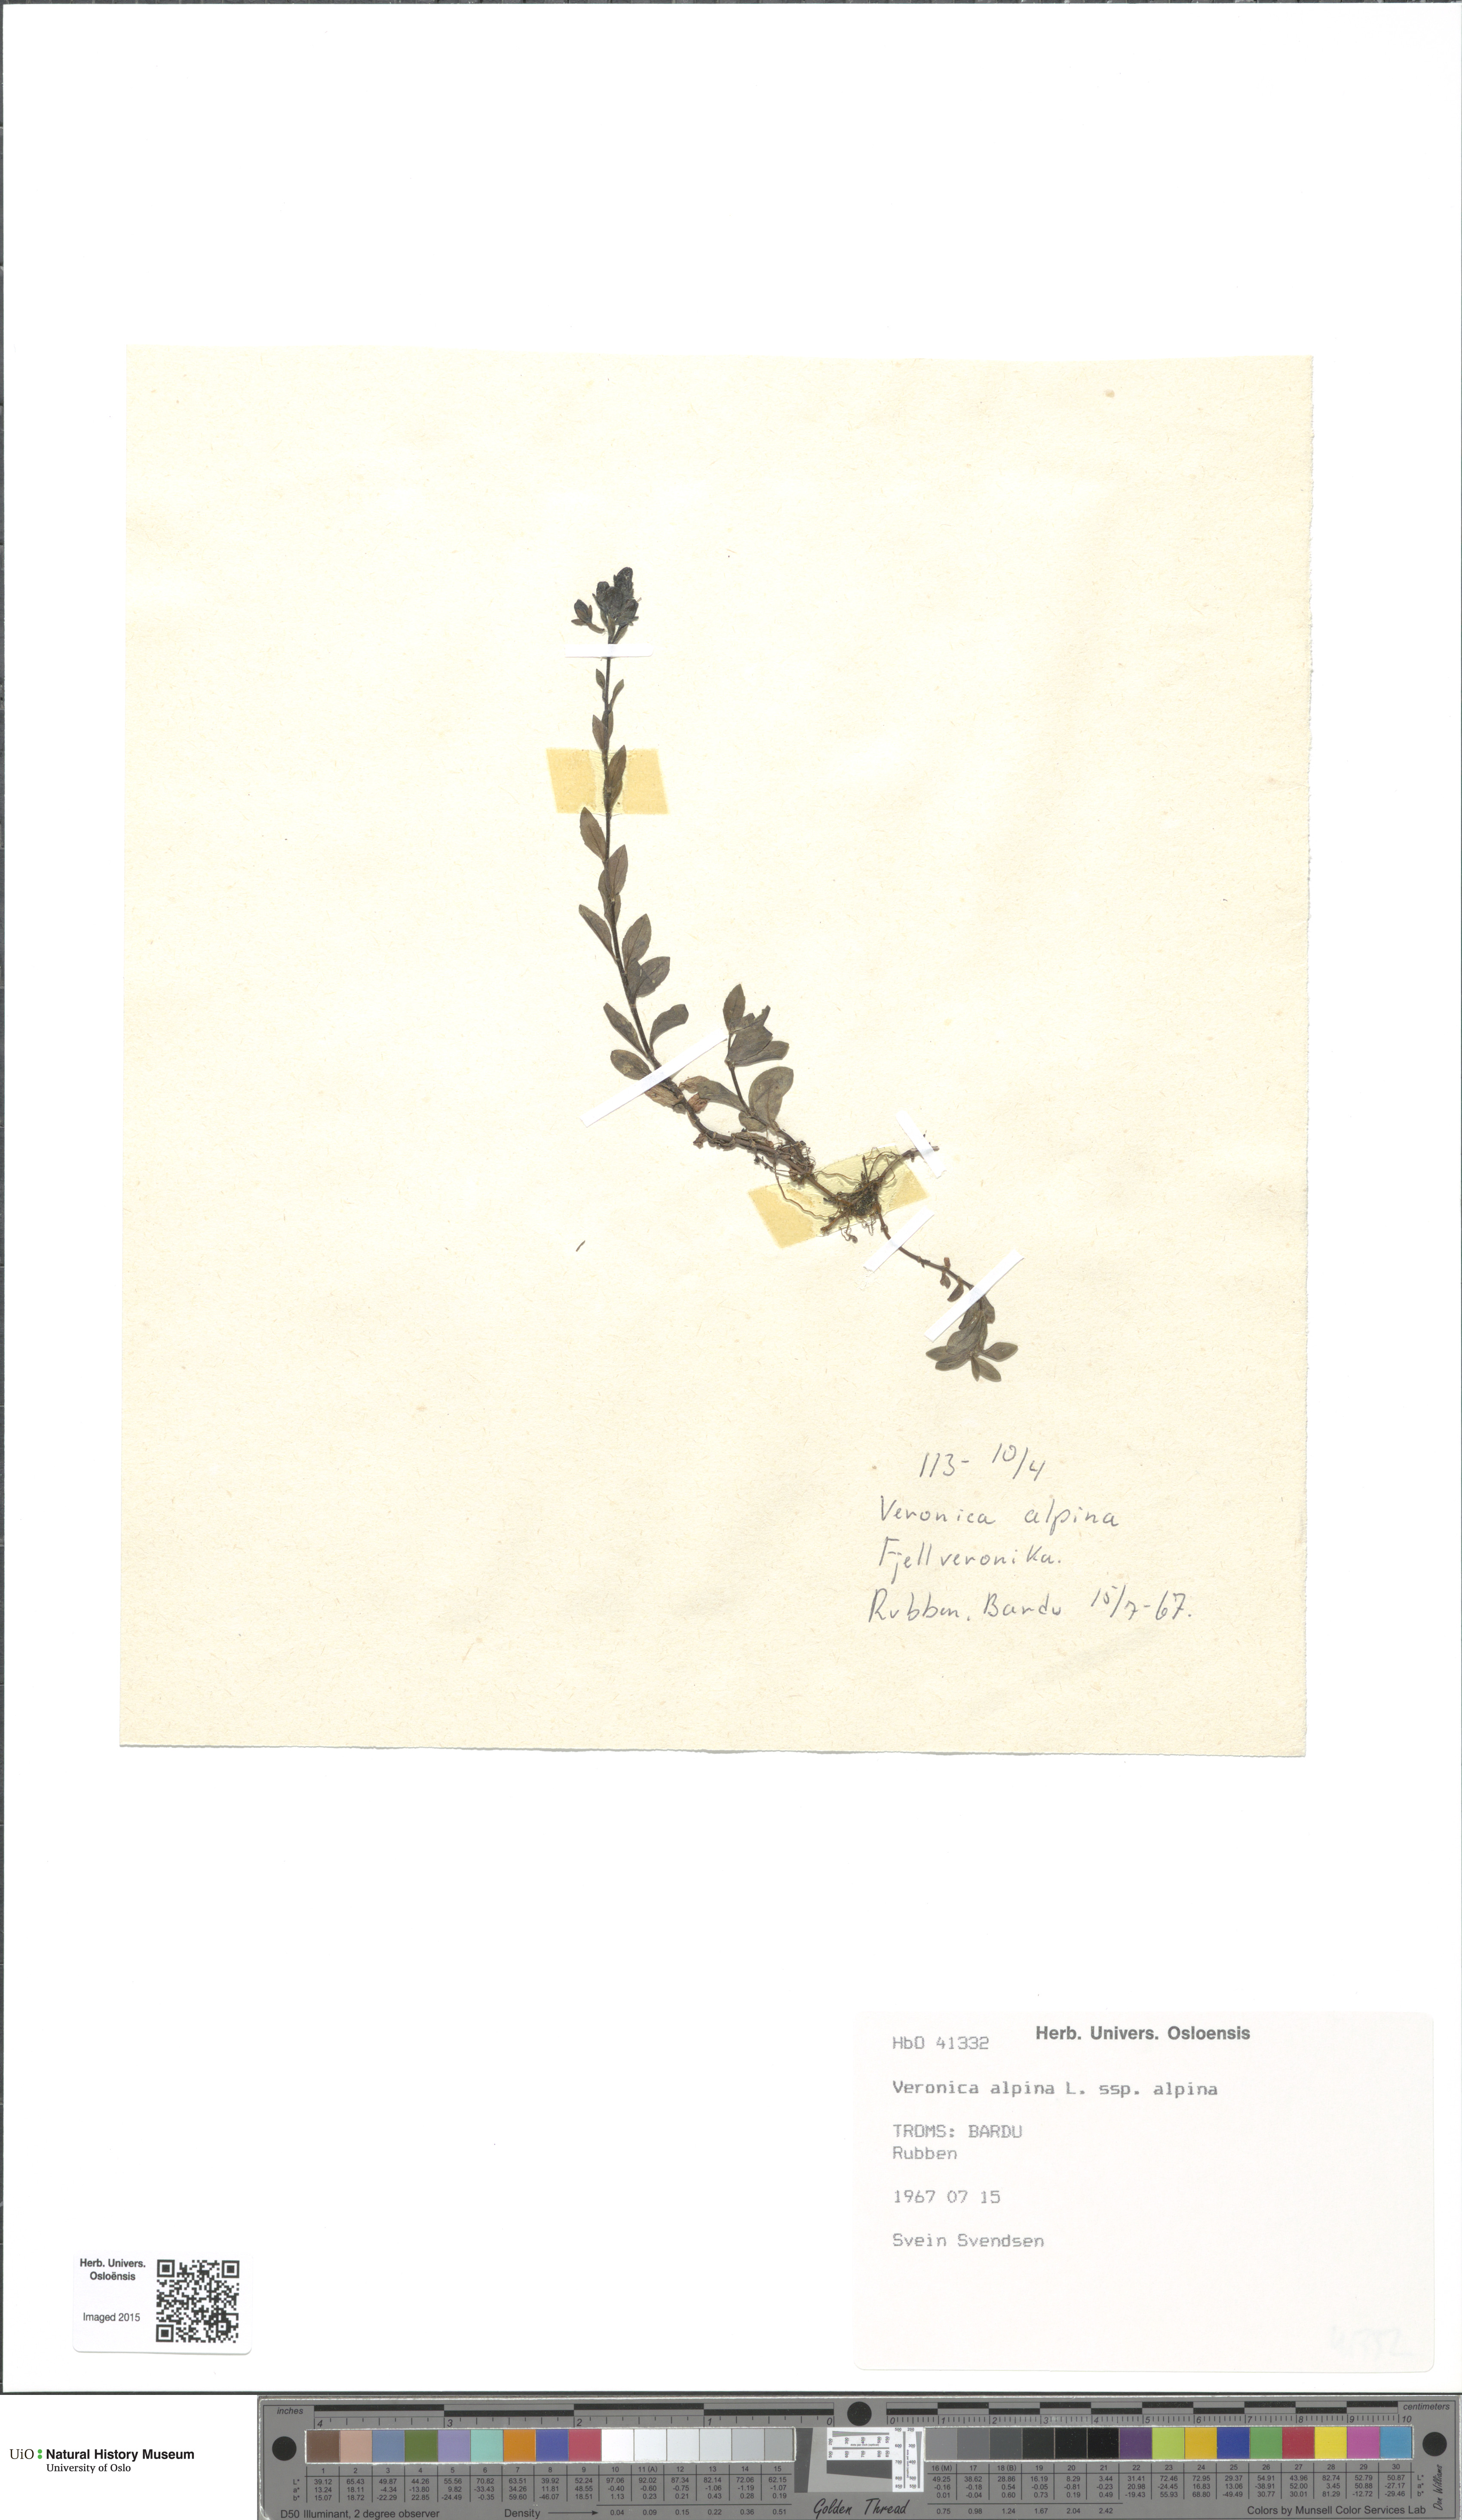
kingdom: Plantae
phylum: Tracheophyta
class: Magnoliopsida
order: Lamiales
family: Plantaginaceae
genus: Veronica
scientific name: Veronica alpina
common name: Alpine speedwell
